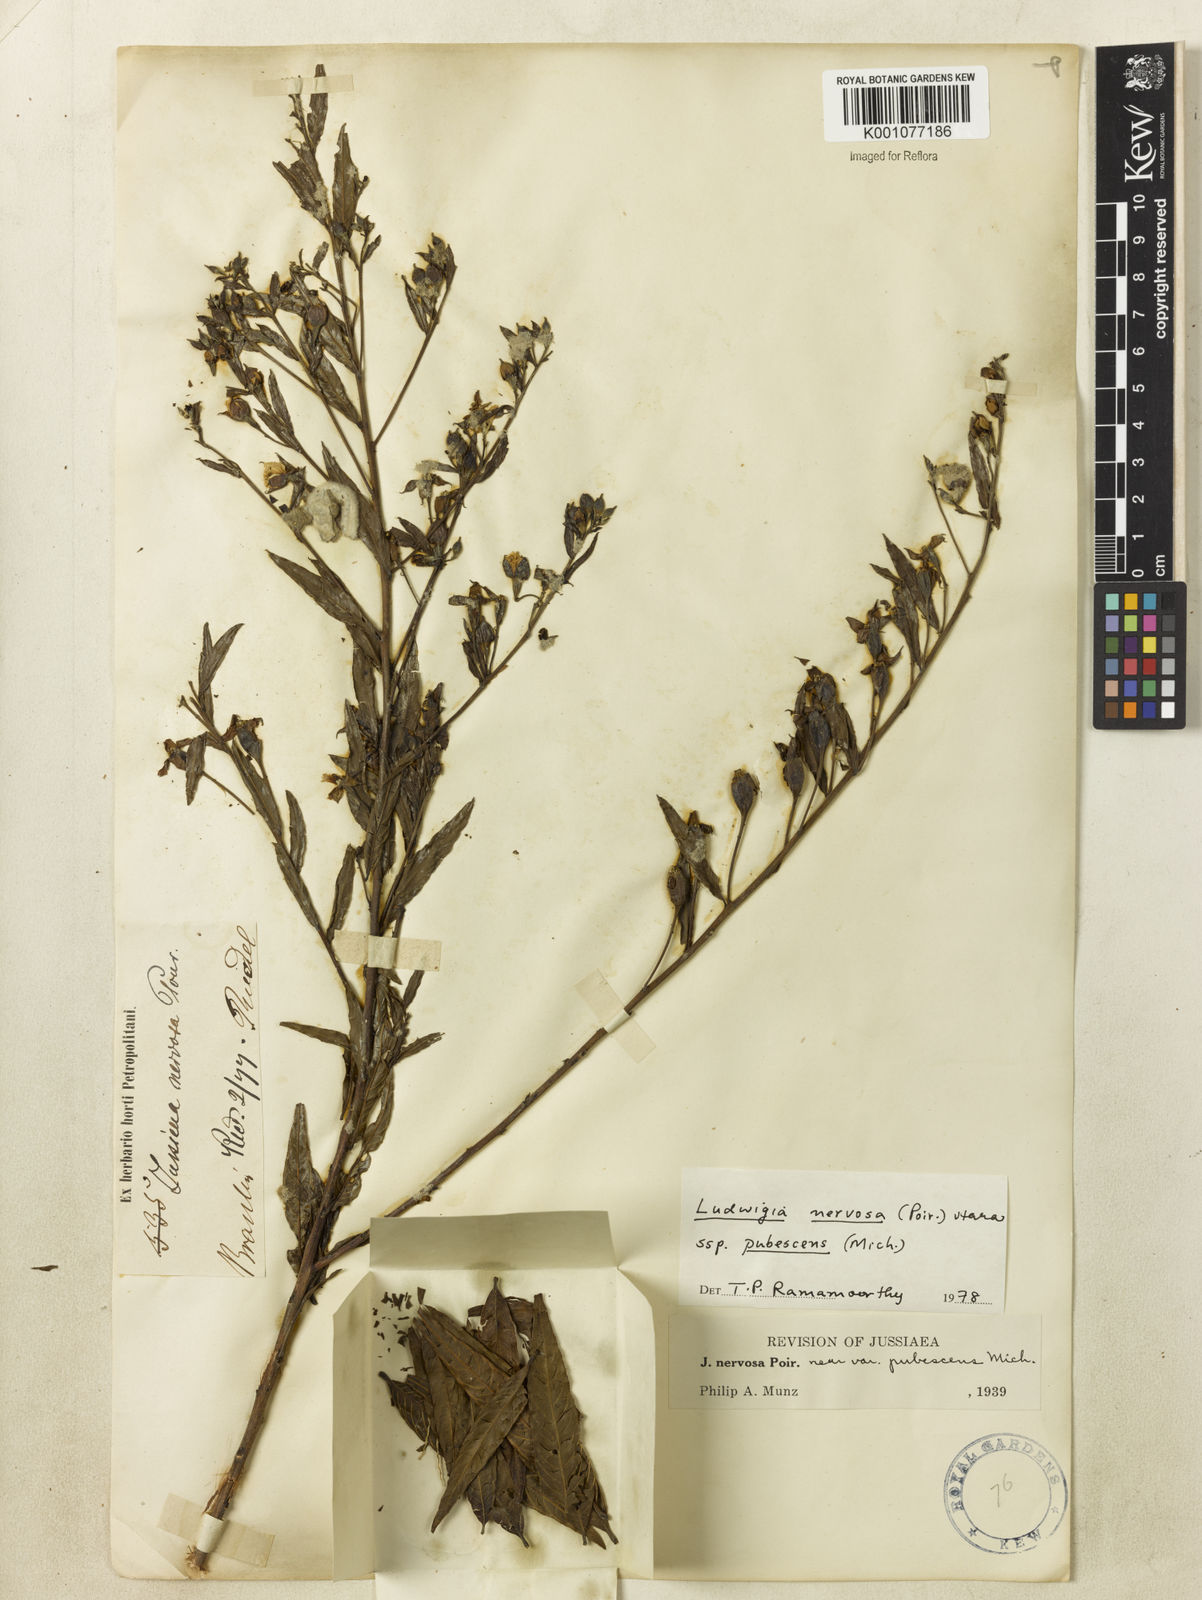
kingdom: Plantae
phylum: Tracheophyta
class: Magnoliopsida
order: Myrtales
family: Onagraceae
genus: Ludwigia
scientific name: Ludwigia nervosa
